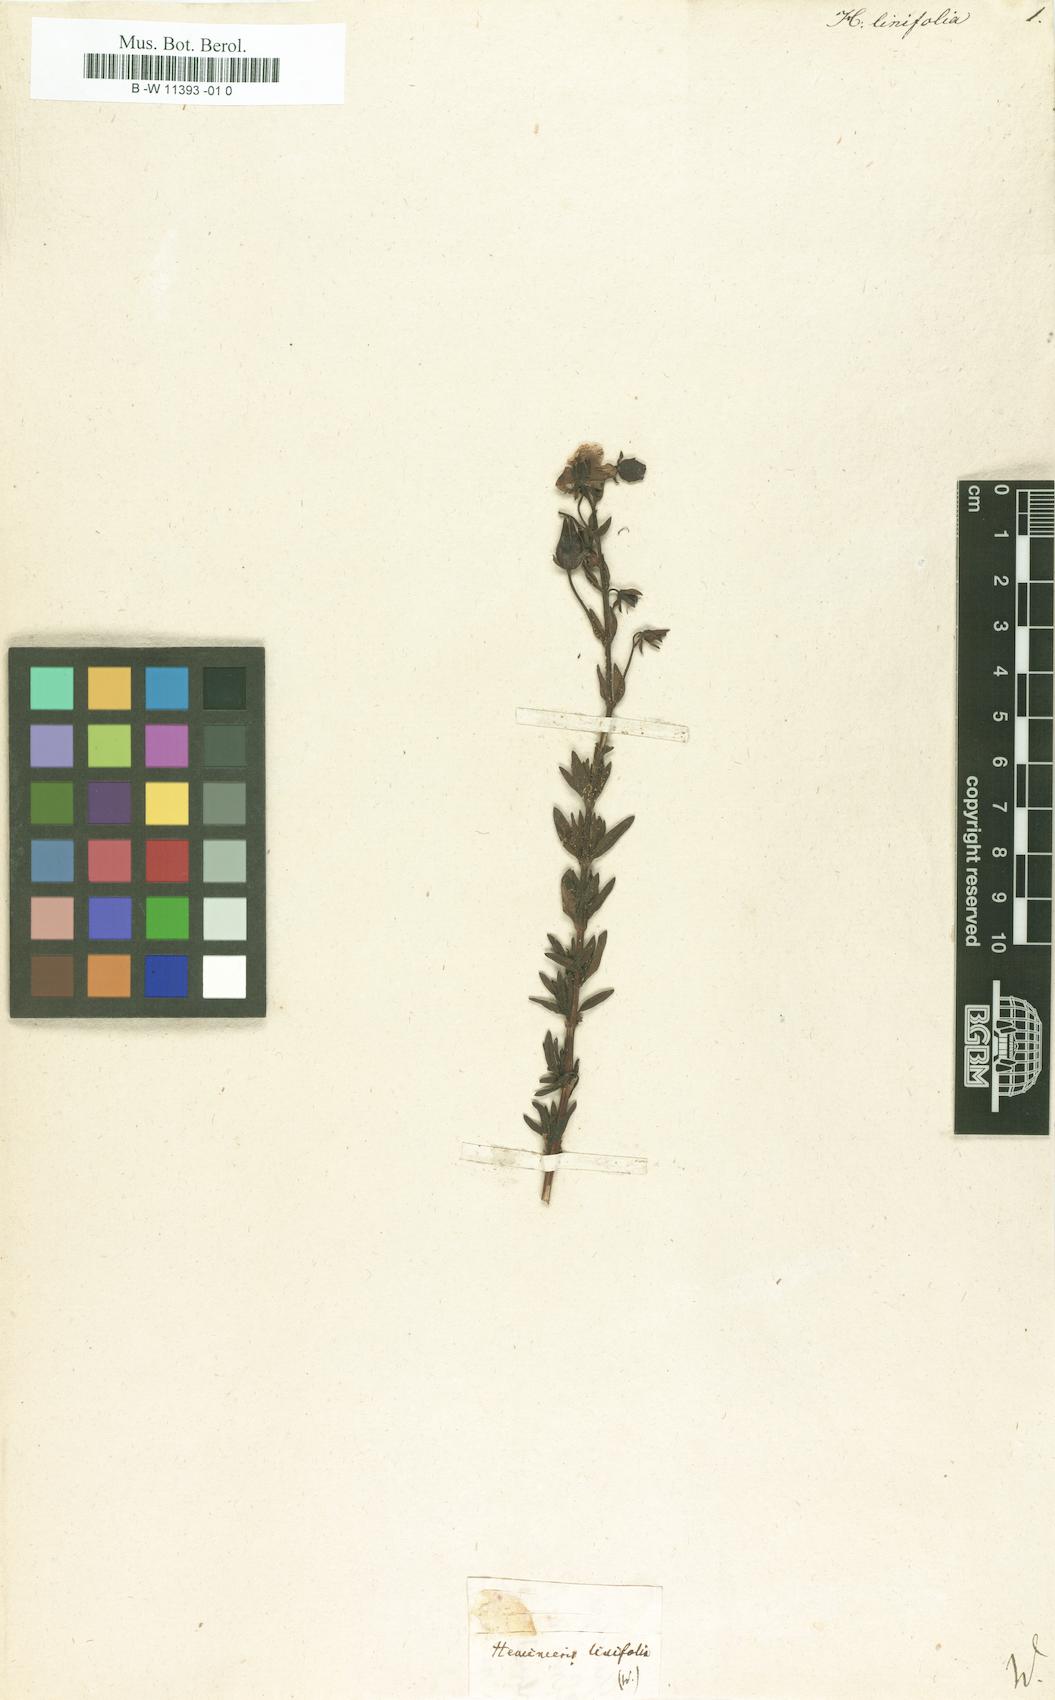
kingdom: Plantae
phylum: Tracheophyta
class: Magnoliopsida
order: Lamiales
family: Scrophulariaceae
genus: Hemimeris
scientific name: Hemimeris linariifolia
